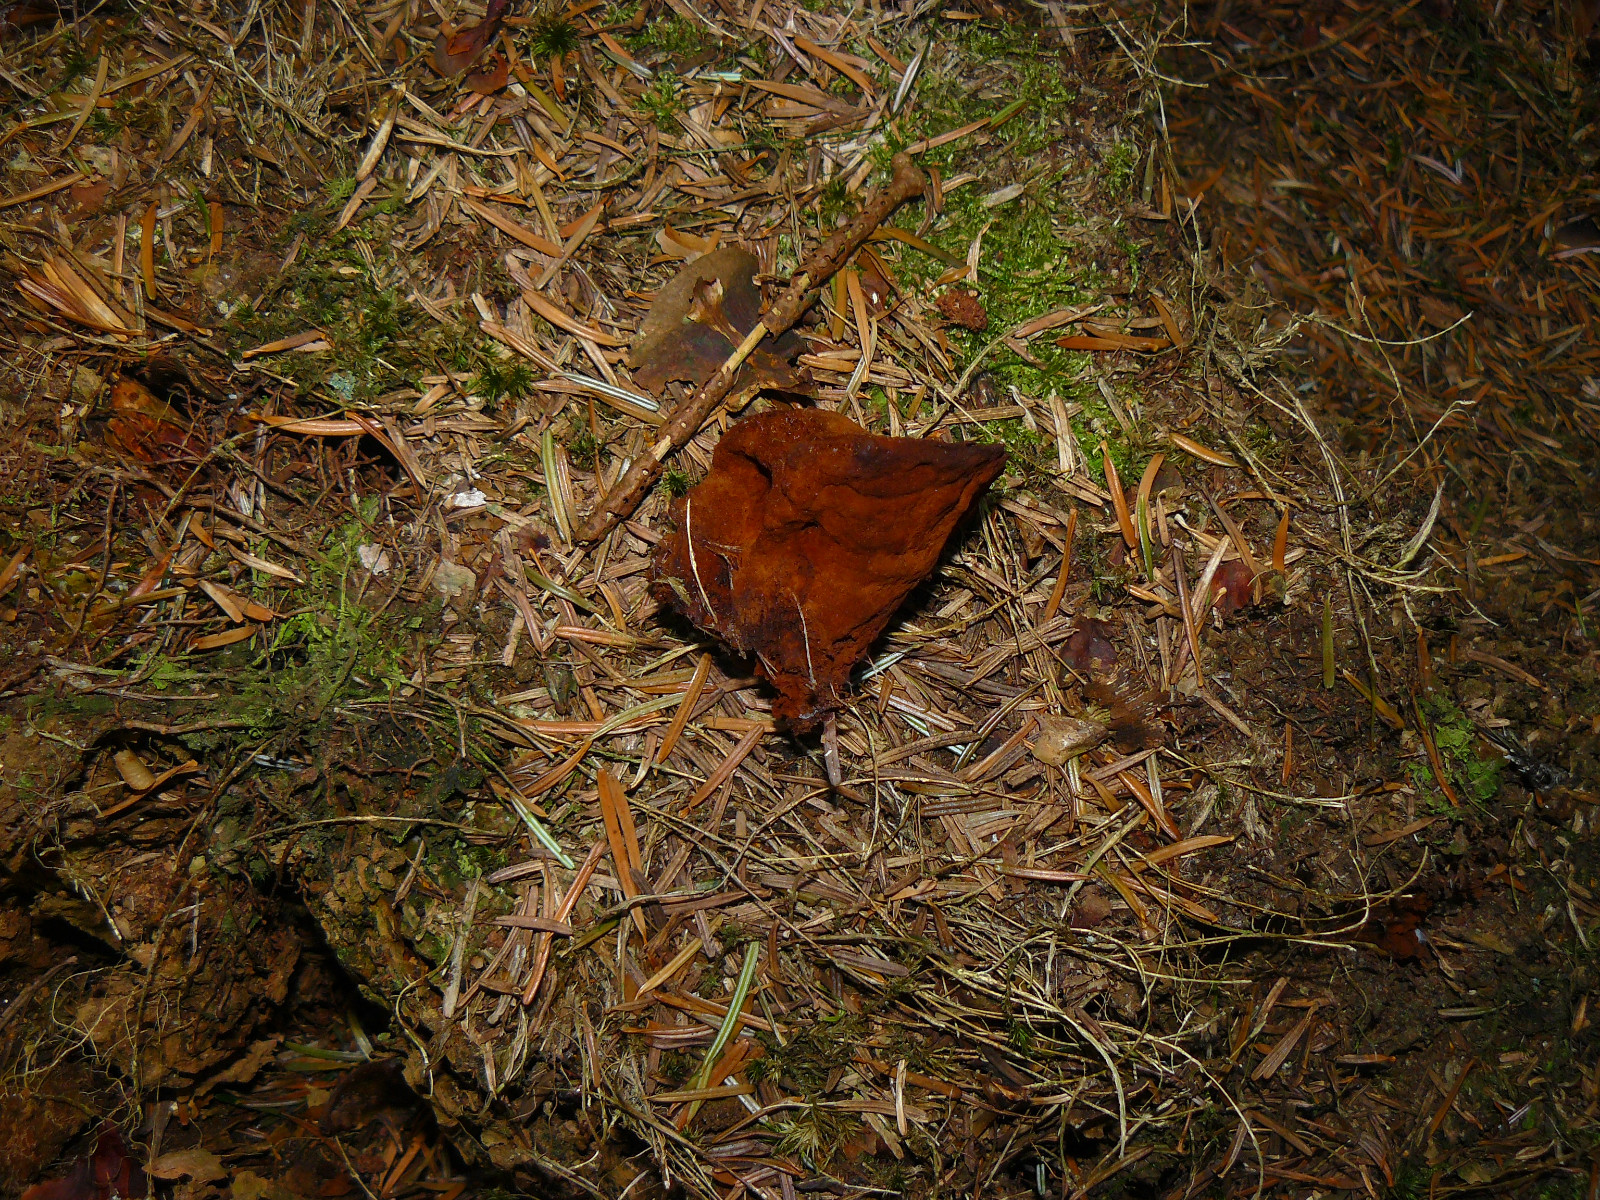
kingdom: Fungi
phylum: Basidiomycota
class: Agaricomycetes
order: Polyporales
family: Laetiporaceae
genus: Phaeolus
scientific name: Phaeolus schweinitzii
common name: brunporesvamp
